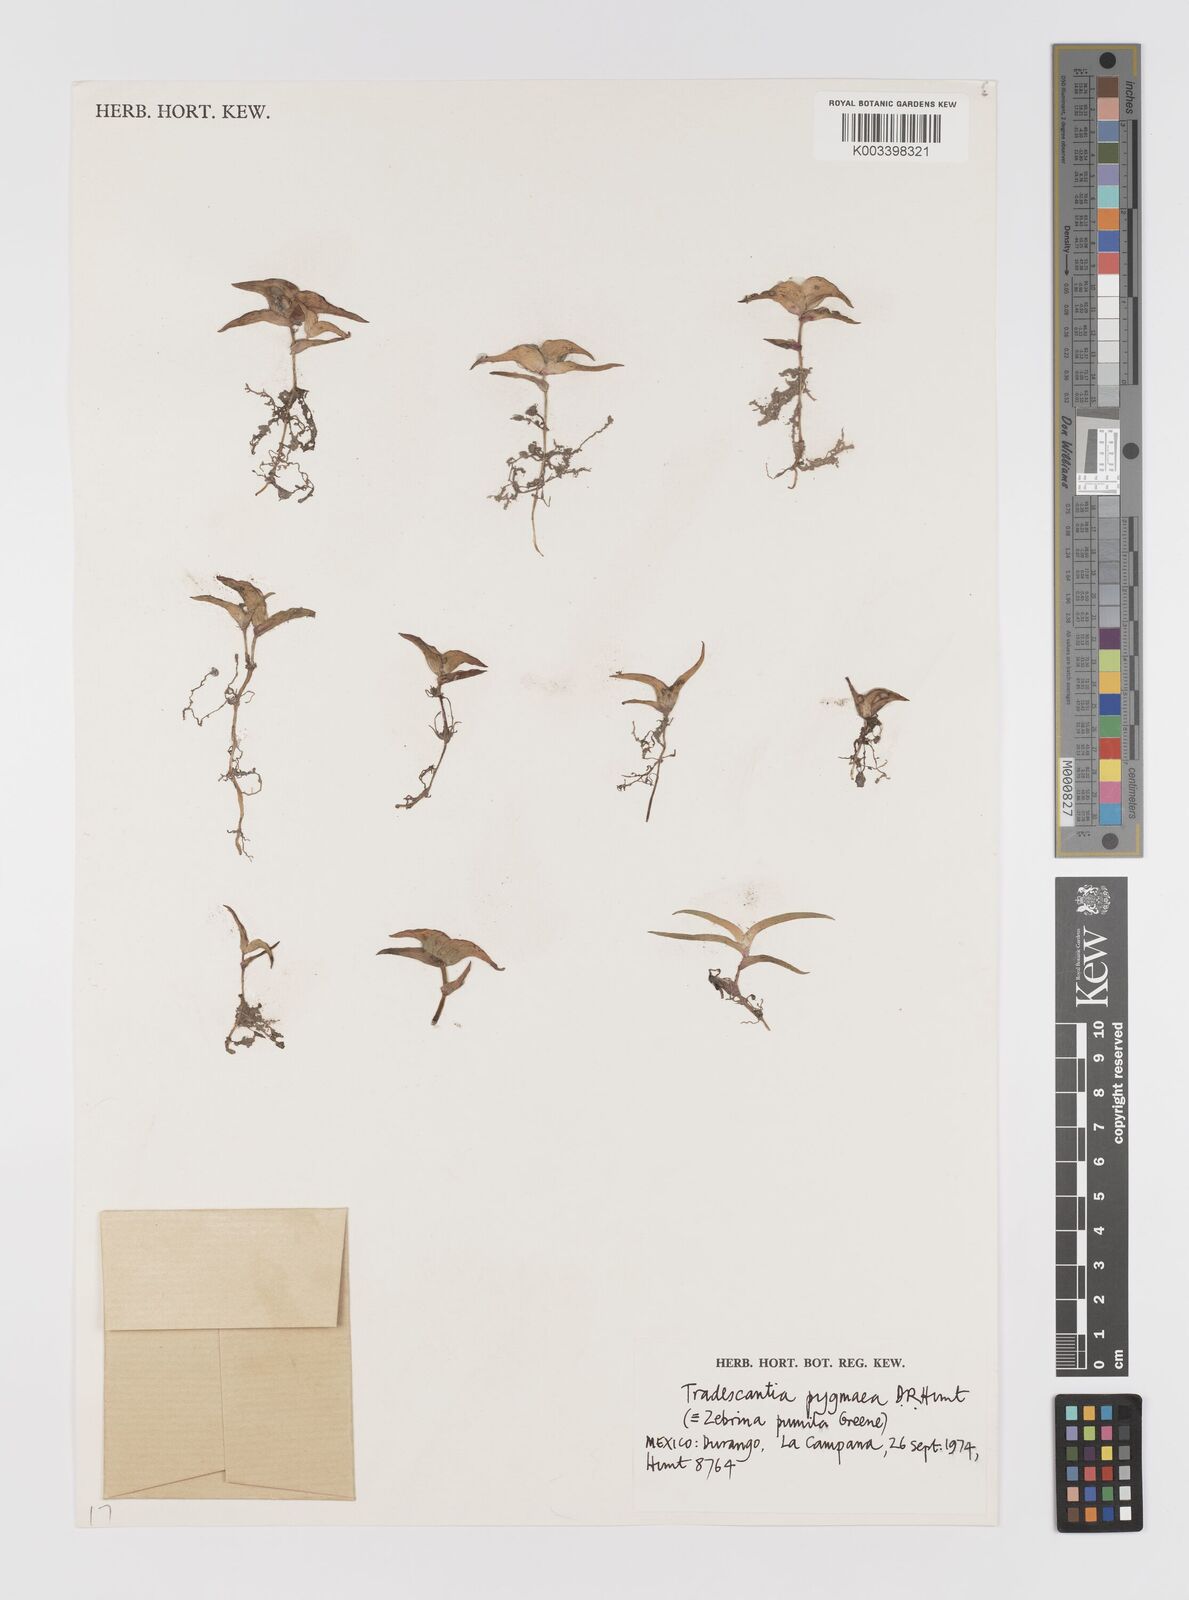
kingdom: Plantae
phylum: Tracheophyta
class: Liliopsida
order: Commelinales
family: Commelinaceae
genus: Tradescantia
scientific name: Tradescantia pygmaea
